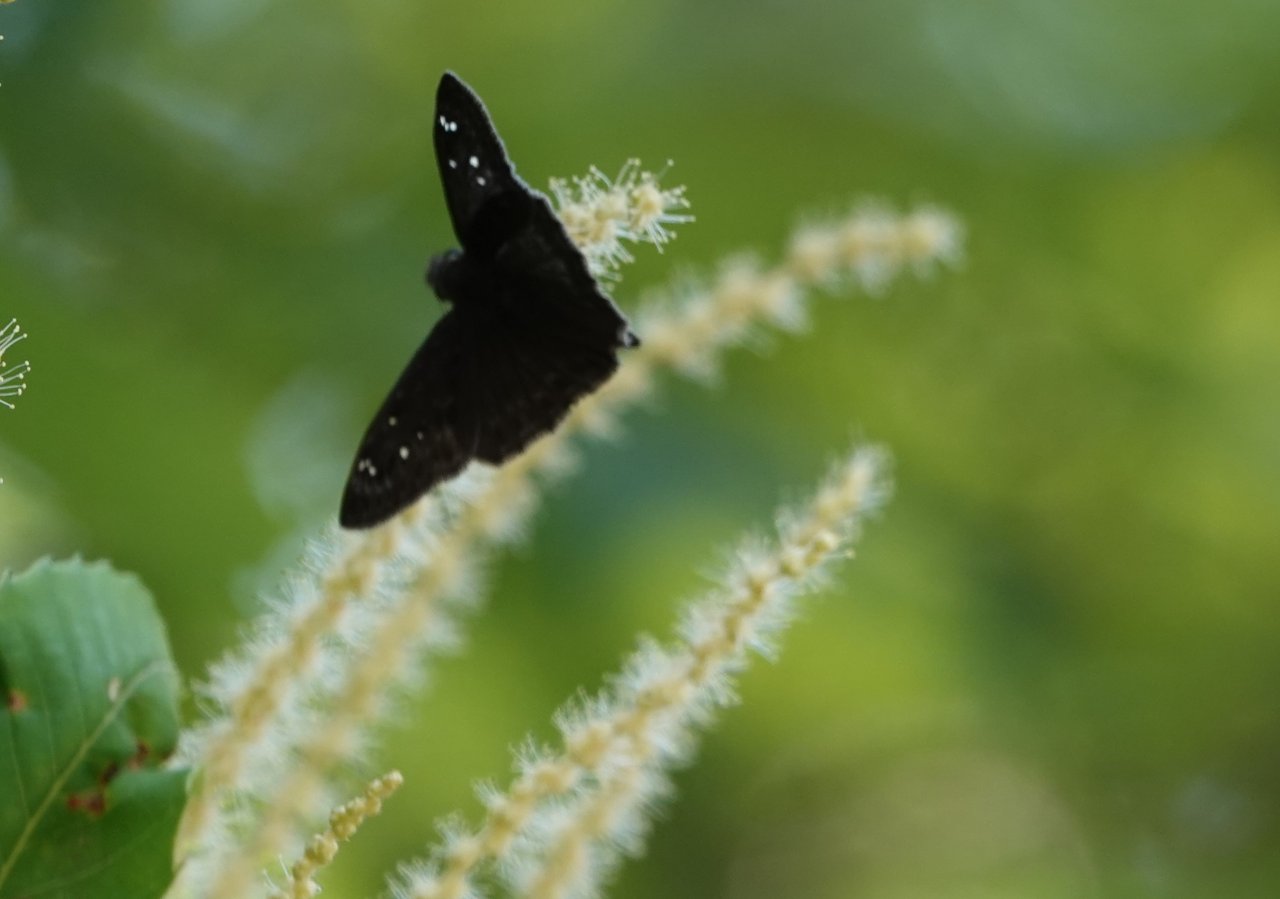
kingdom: Animalia
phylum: Arthropoda
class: Insecta
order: Lepidoptera
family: Hesperiidae
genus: Gesta
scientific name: Gesta
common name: Horace's Duskywing
